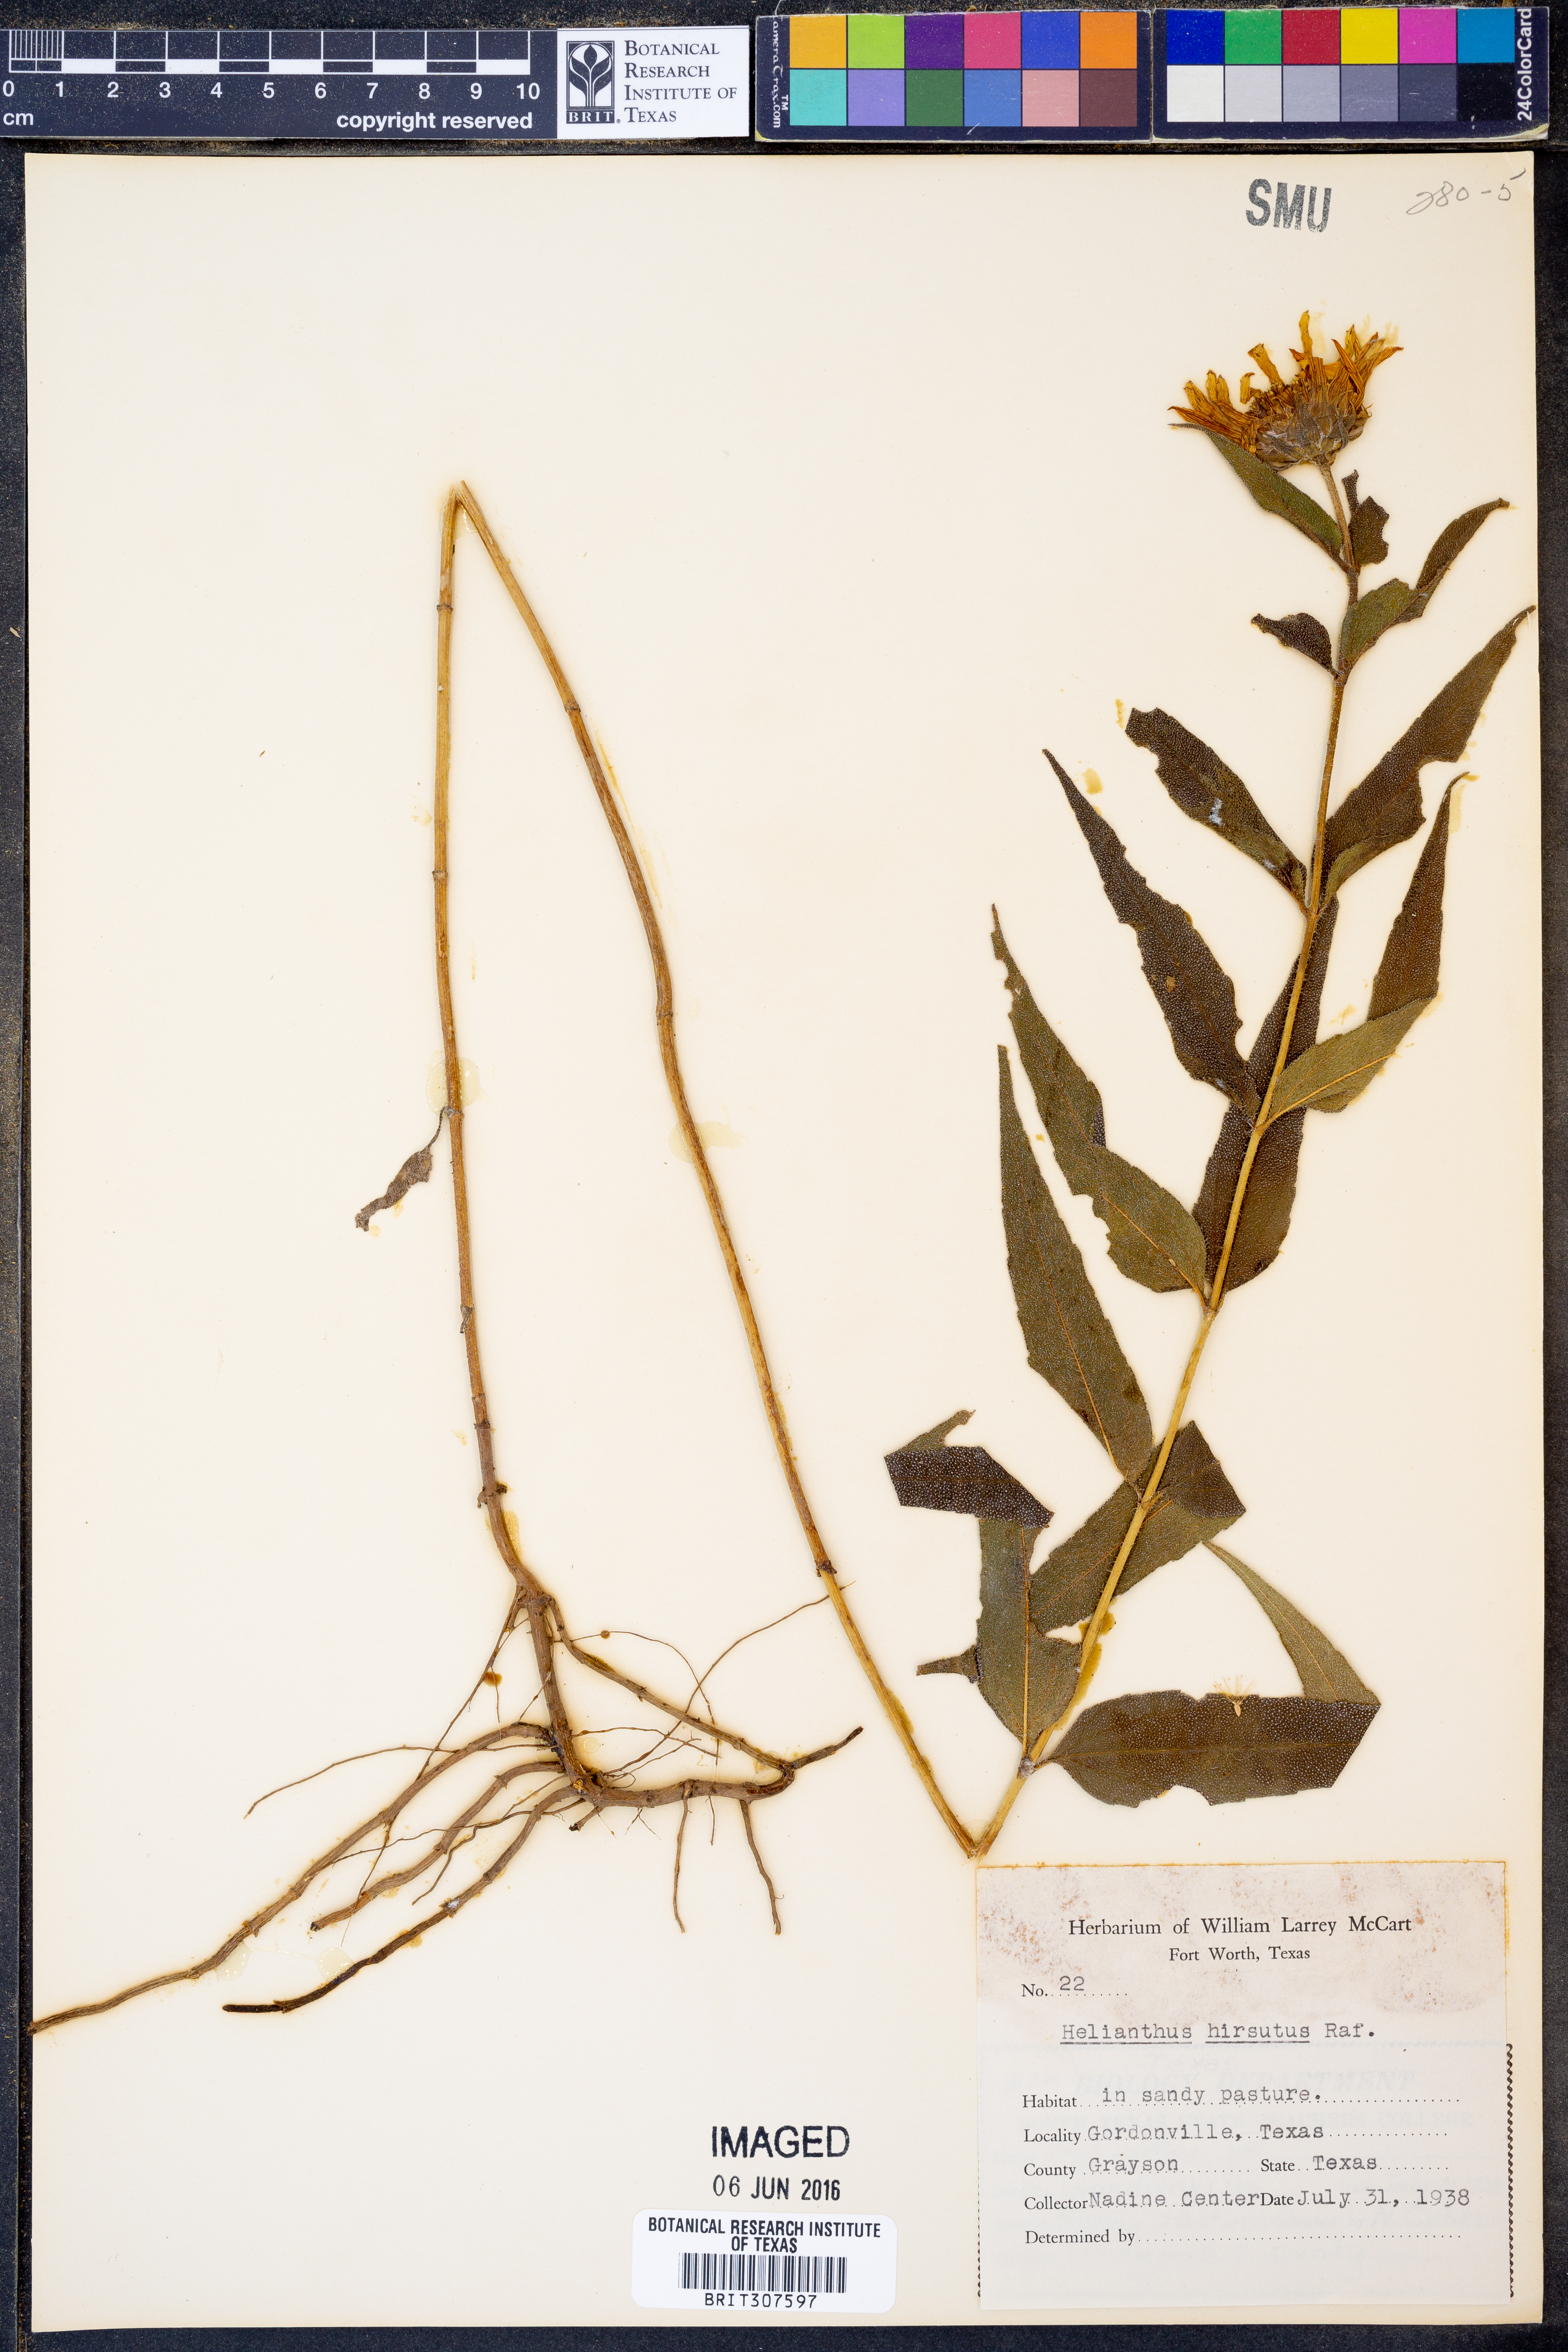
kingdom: Plantae
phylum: Tracheophyta
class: Magnoliopsida
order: Asterales
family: Asteraceae
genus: Helianthus
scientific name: Helianthus hirsutus
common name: Hairy sunflower
